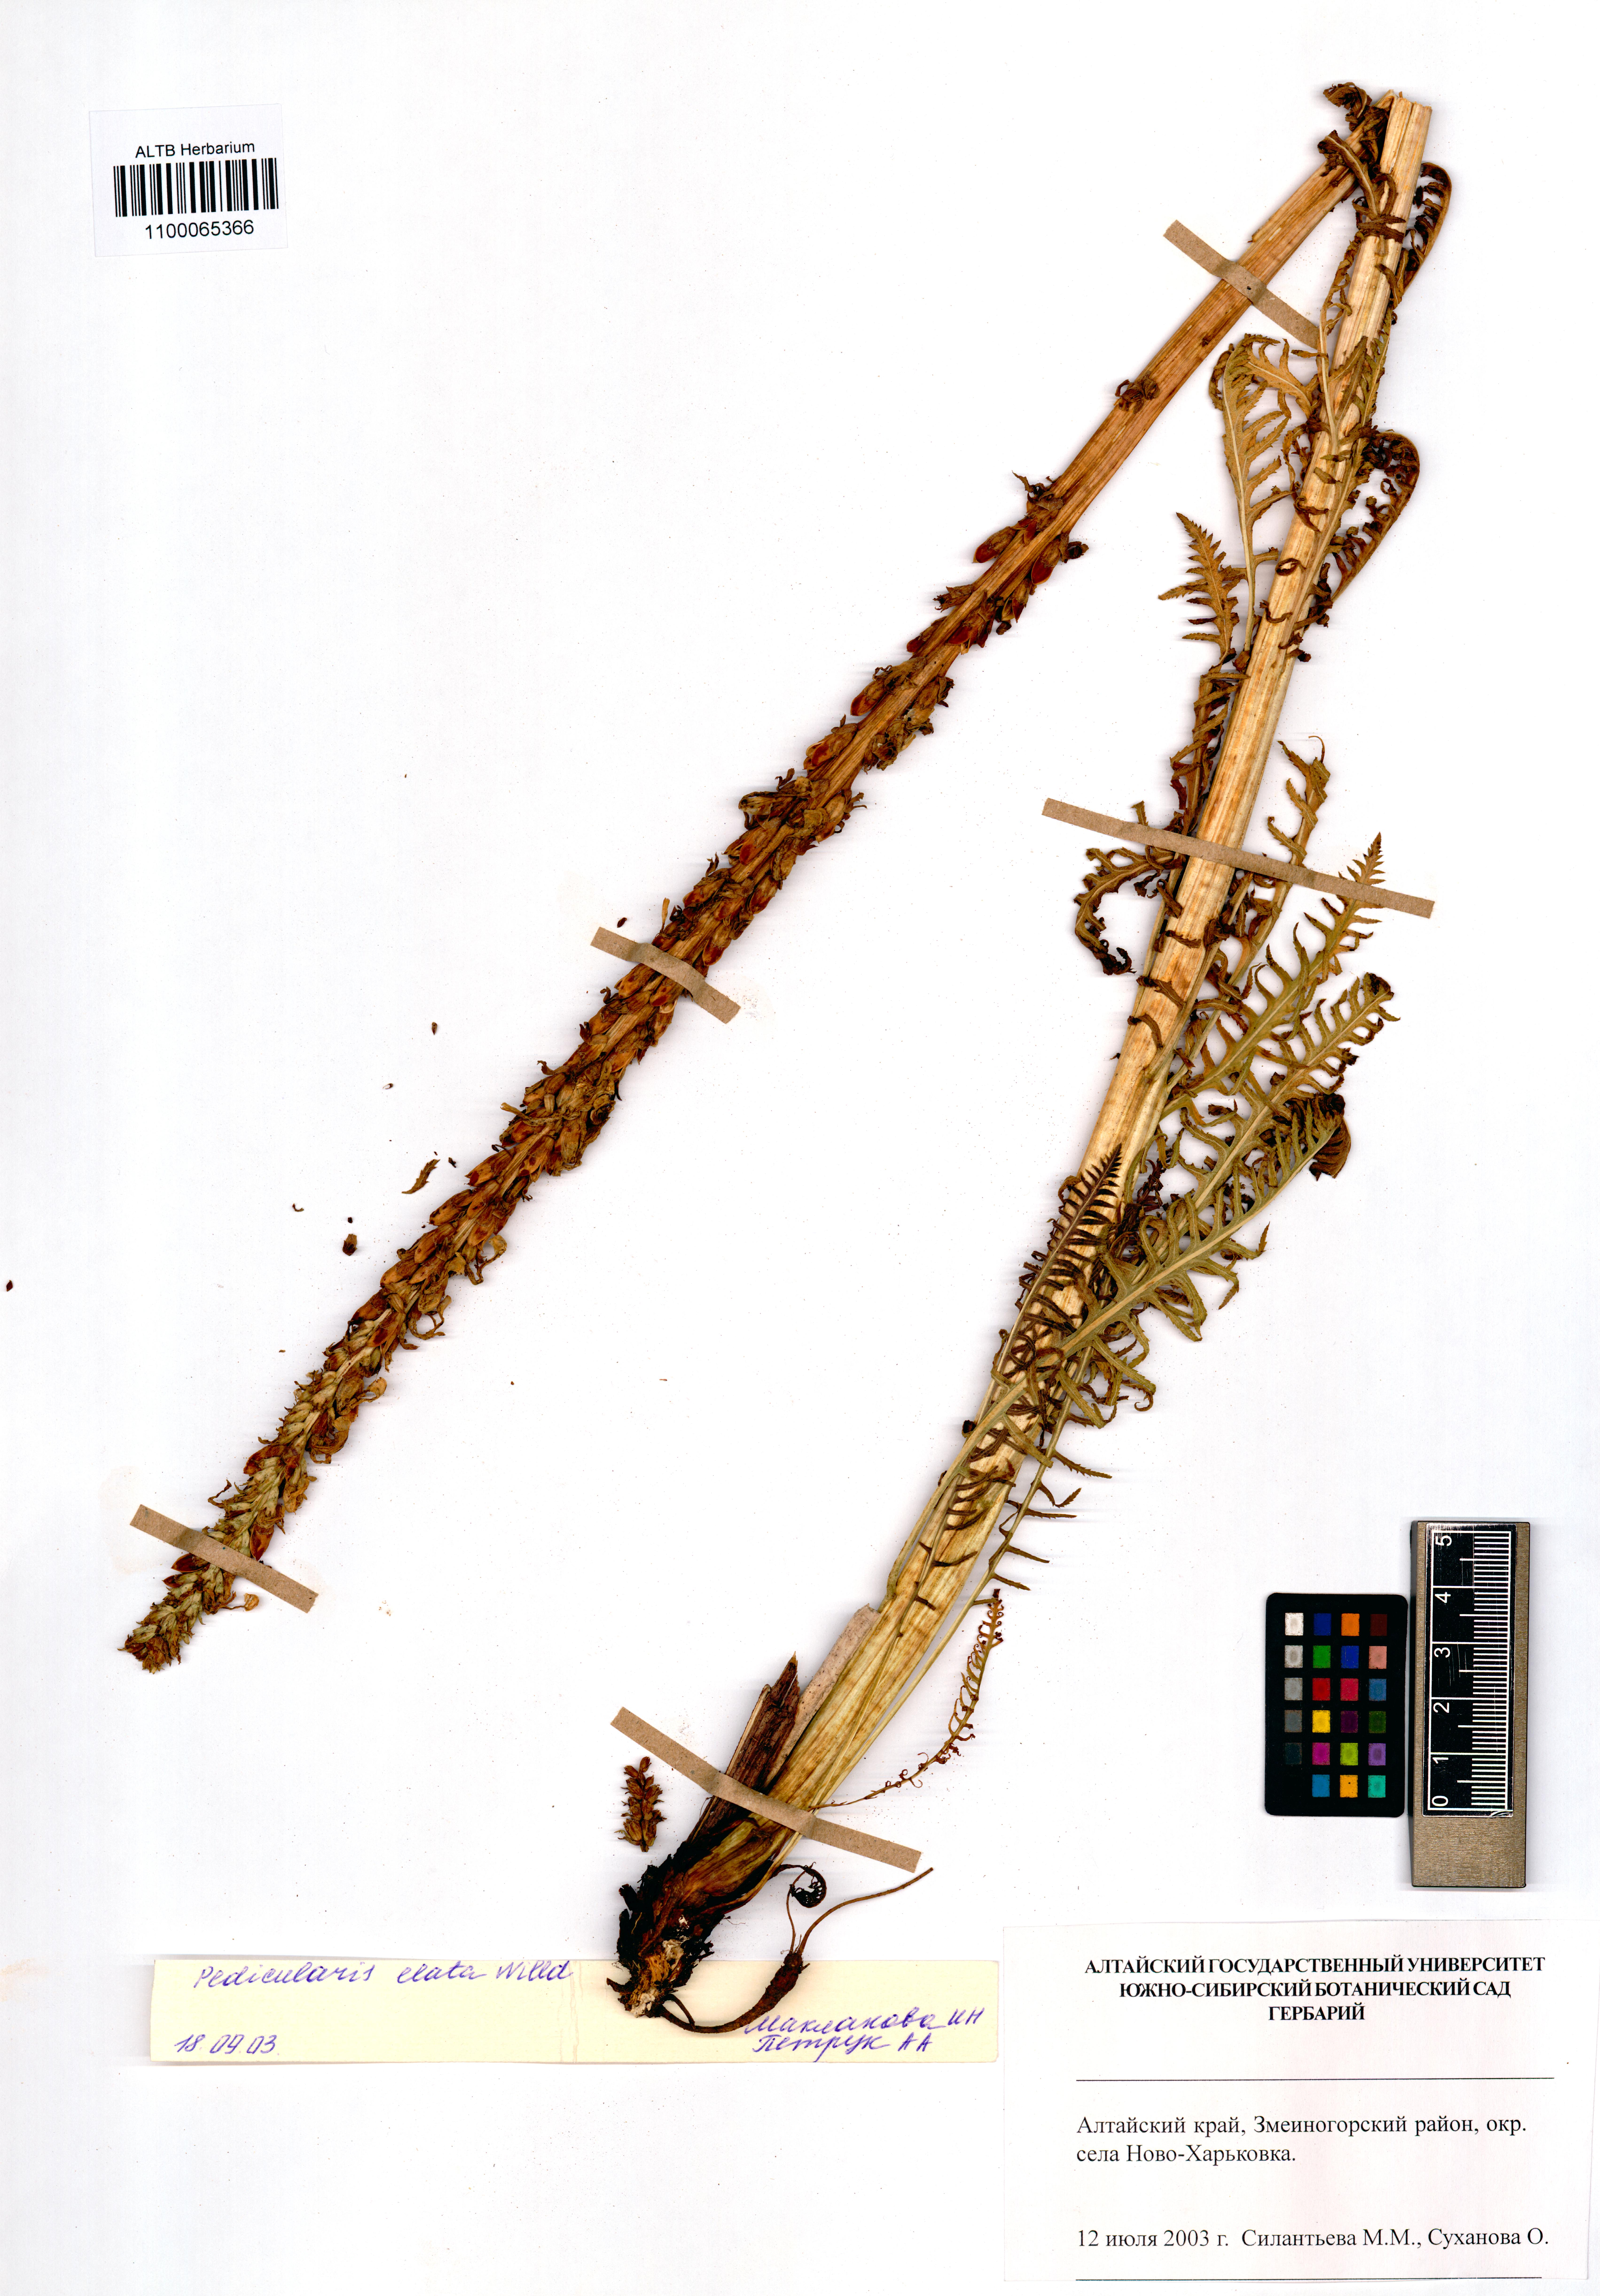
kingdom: Plantae
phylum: Tracheophyta
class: Magnoliopsida
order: Lamiales
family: Orobanchaceae
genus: Pedicularis
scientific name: Pedicularis elata
